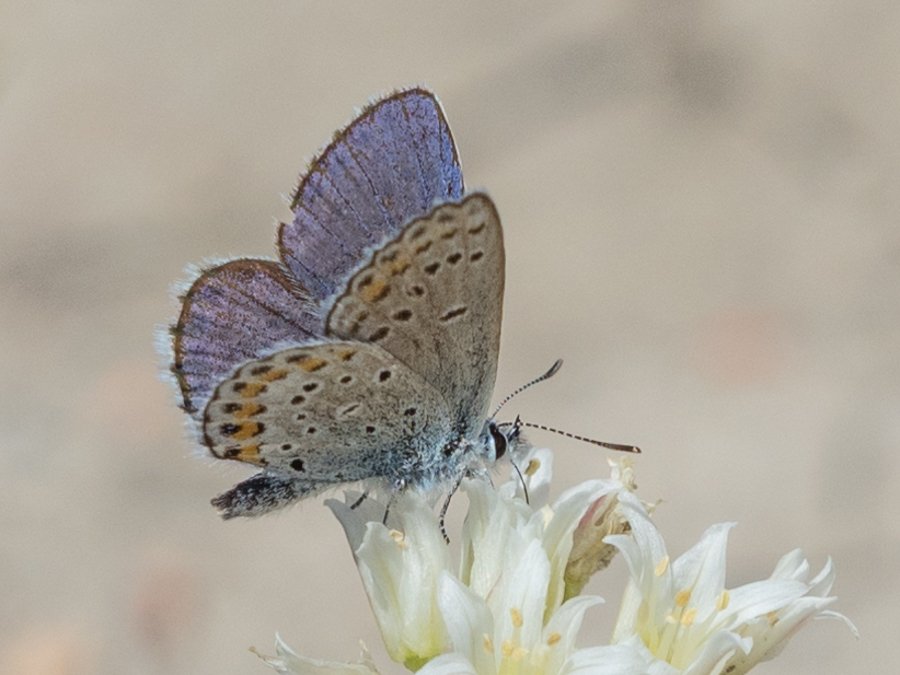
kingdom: Animalia
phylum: Arthropoda
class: Insecta
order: Lepidoptera
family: Lycaenidae
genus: Lycaeides
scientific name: Lycaeides melissa
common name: Melissa Blue
